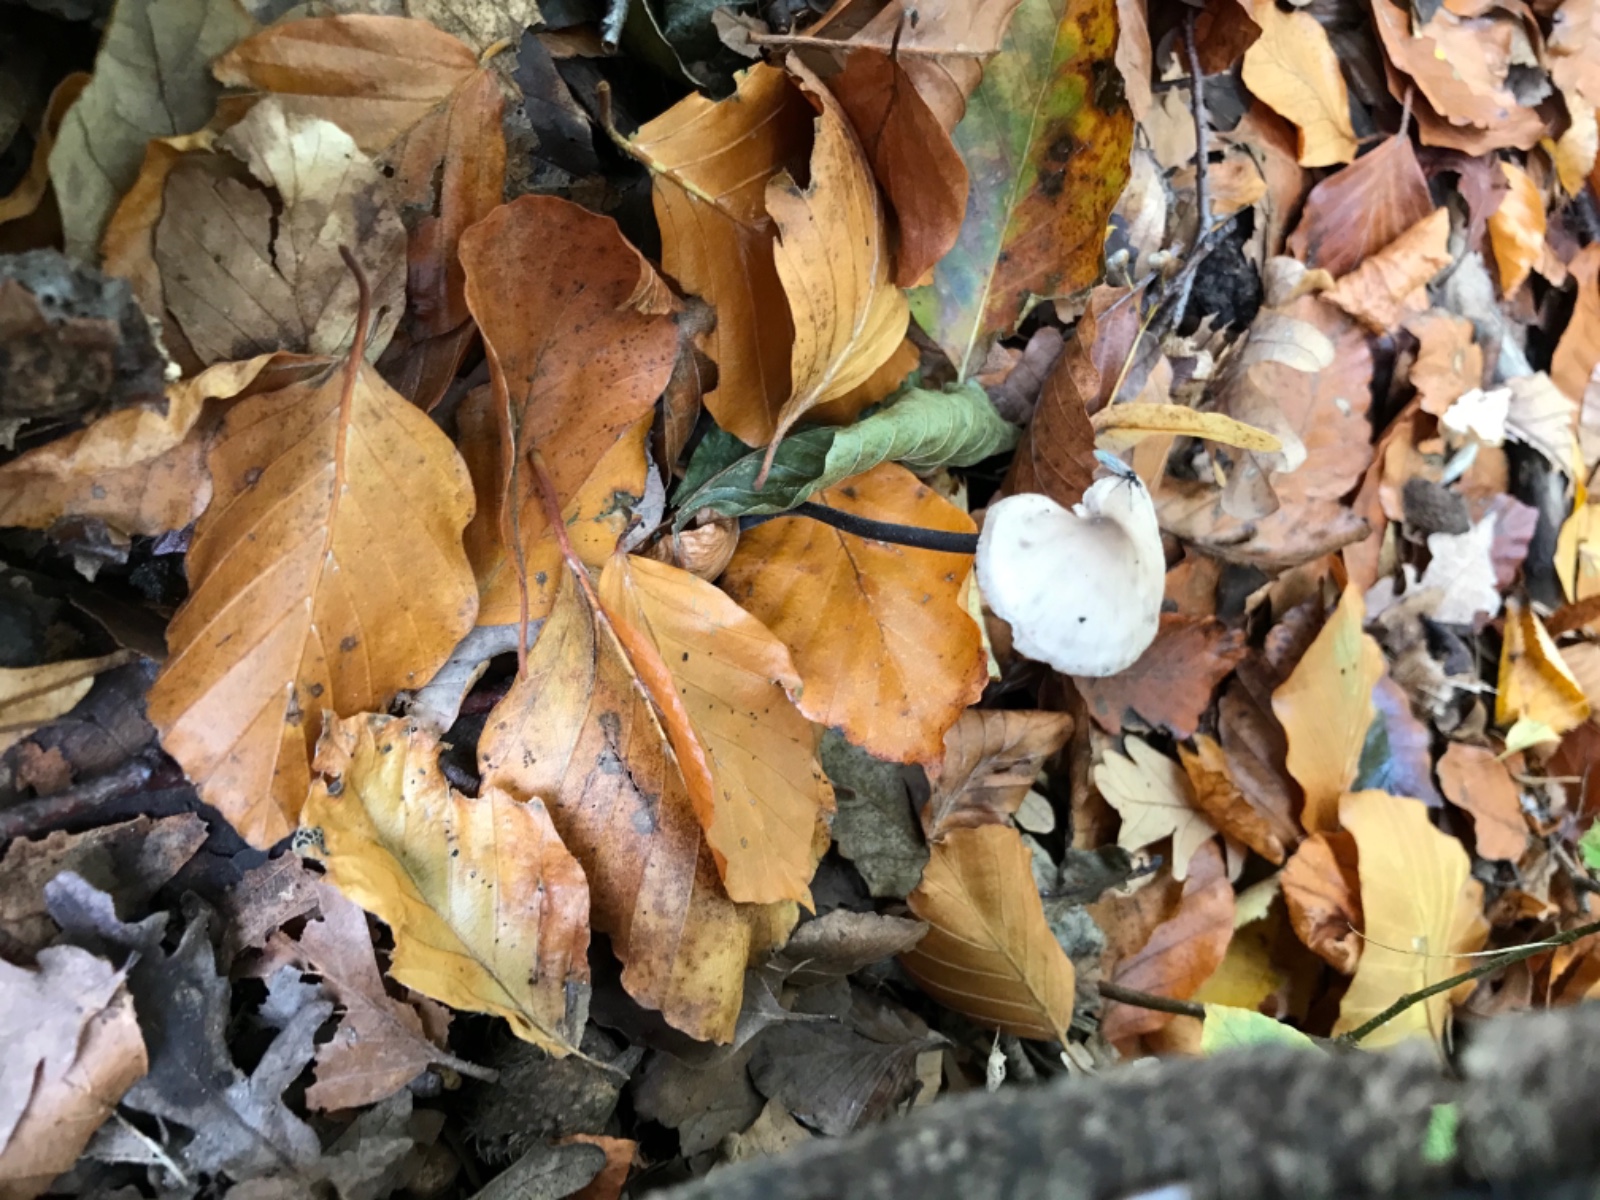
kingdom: Fungi
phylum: Basidiomycota
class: Agaricomycetes
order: Agaricales
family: Omphalotaceae
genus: Mycetinis
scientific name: Mycetinis alliaceus
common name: stor løghat
